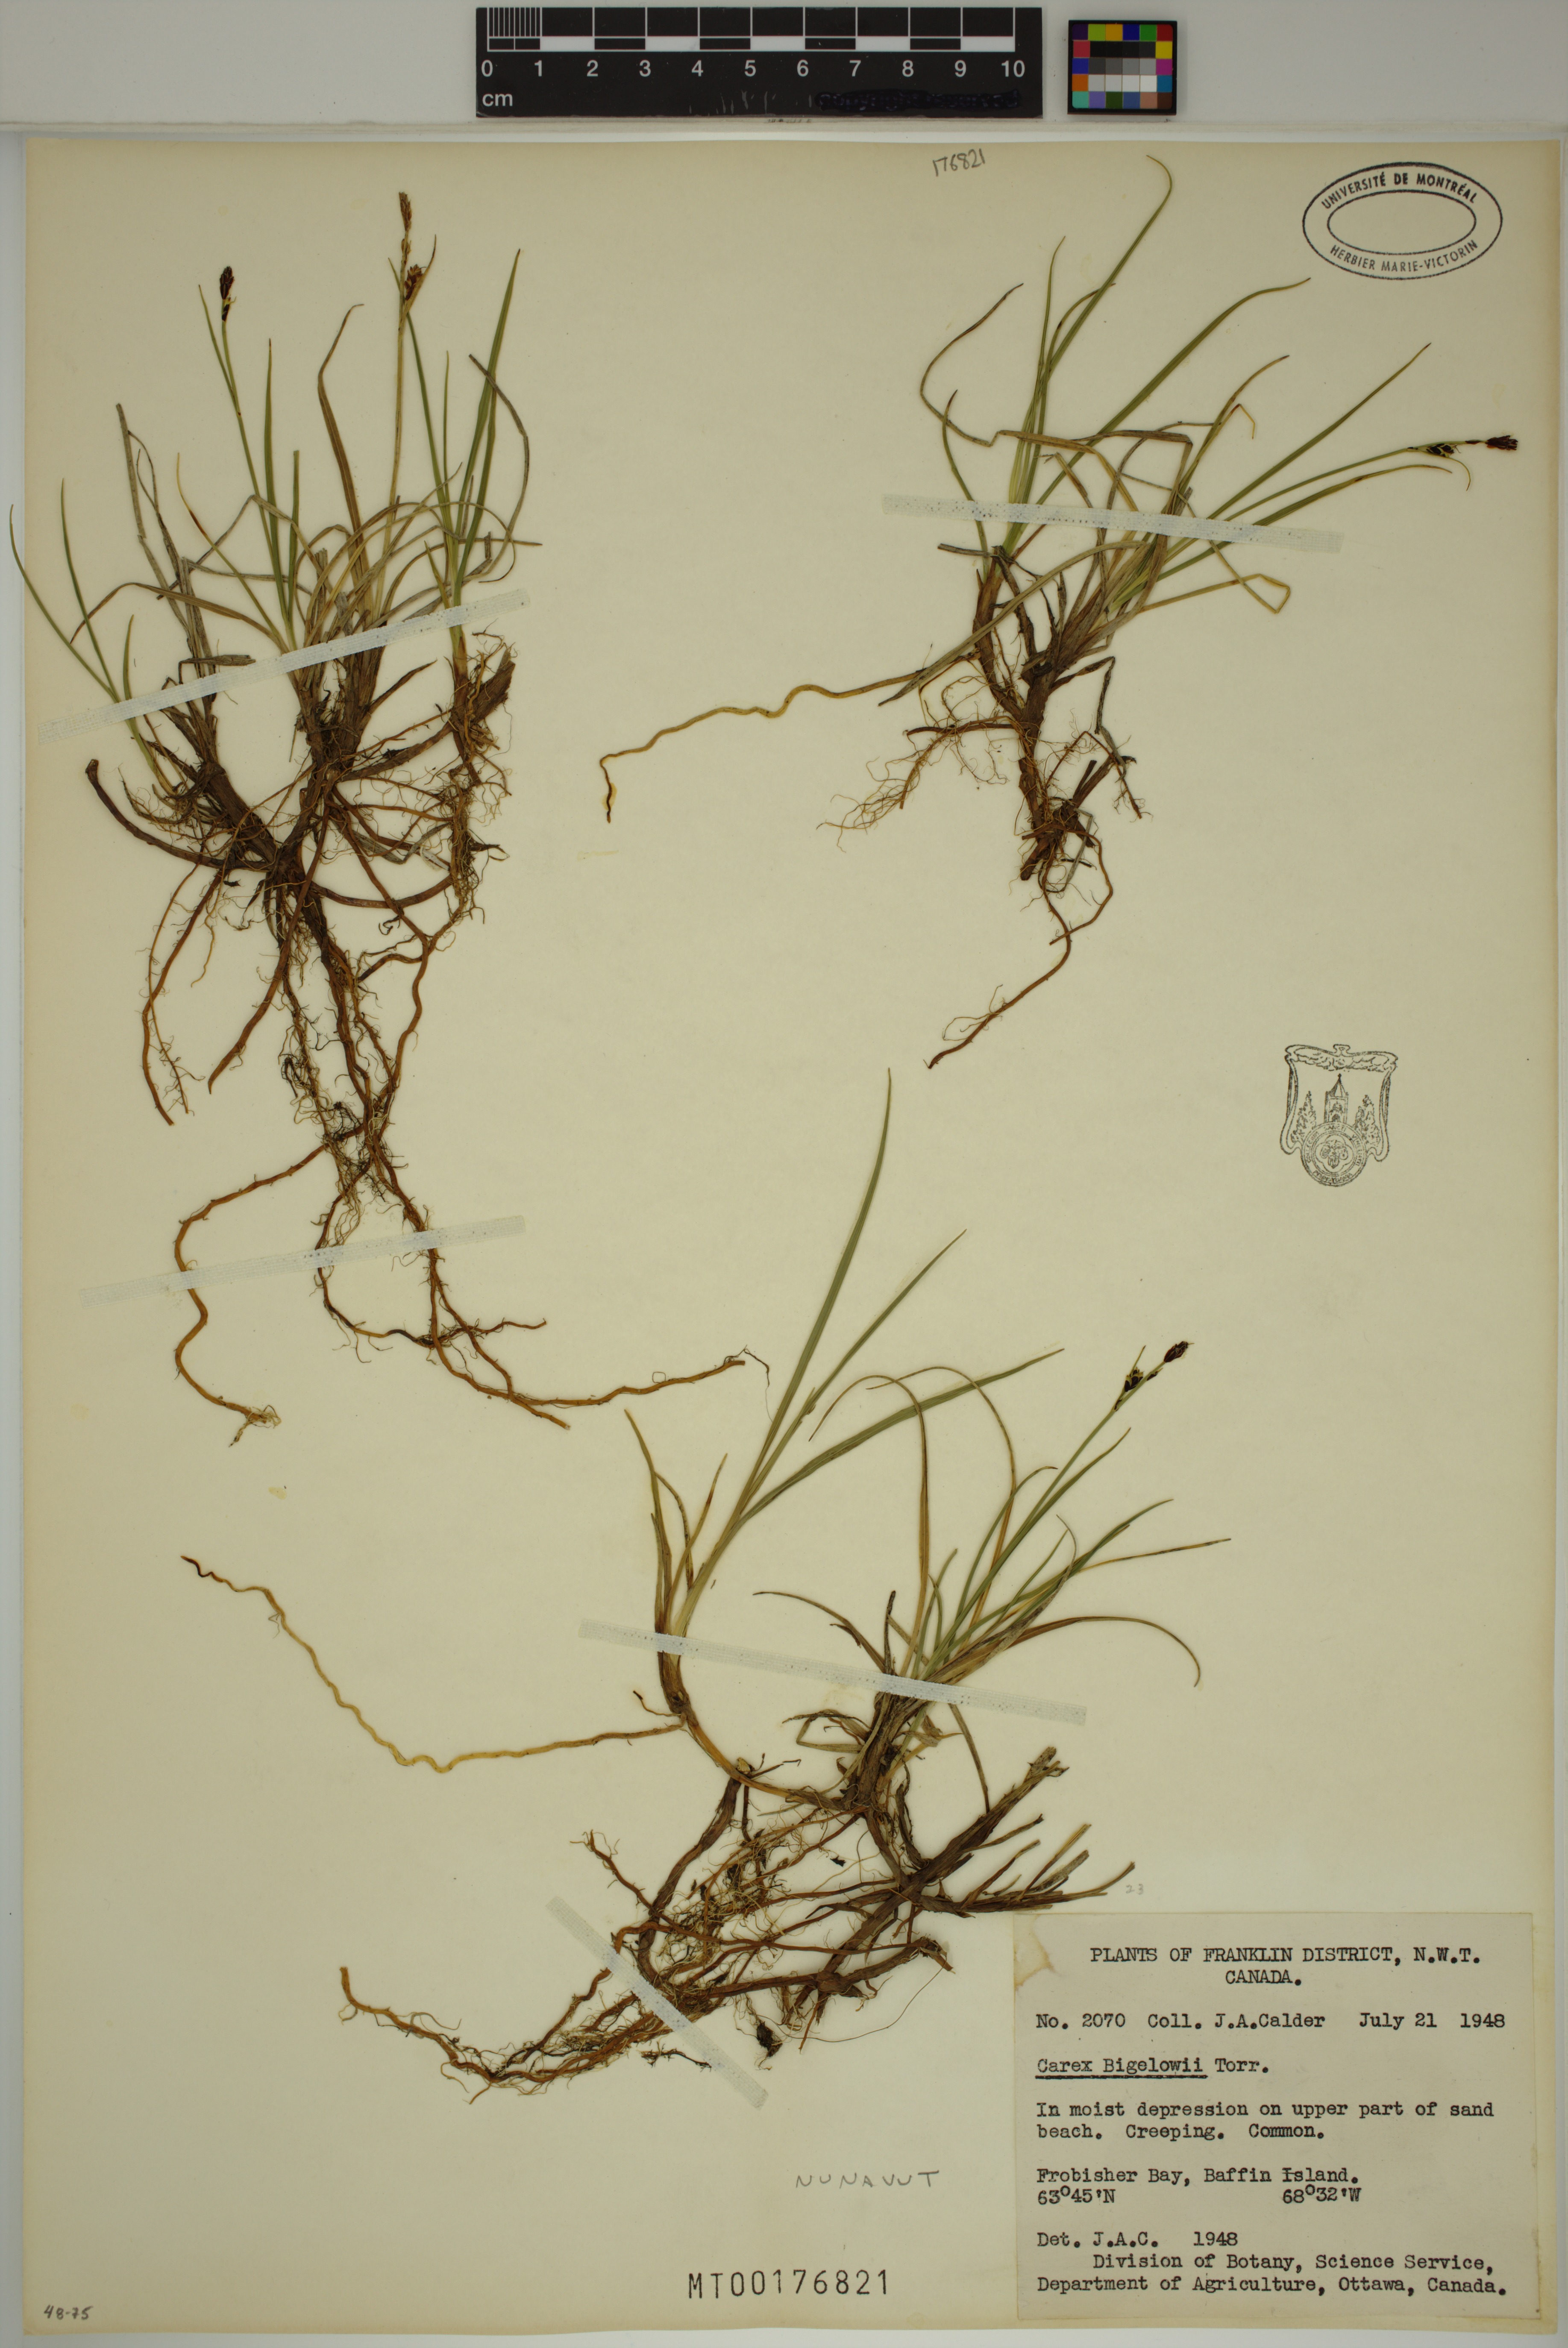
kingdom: Plantae
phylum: Tracheophyta
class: Liliopsida
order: Poales
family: Cyperaceae
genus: Carex
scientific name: Carex bigelowii
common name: Stiff sedge
